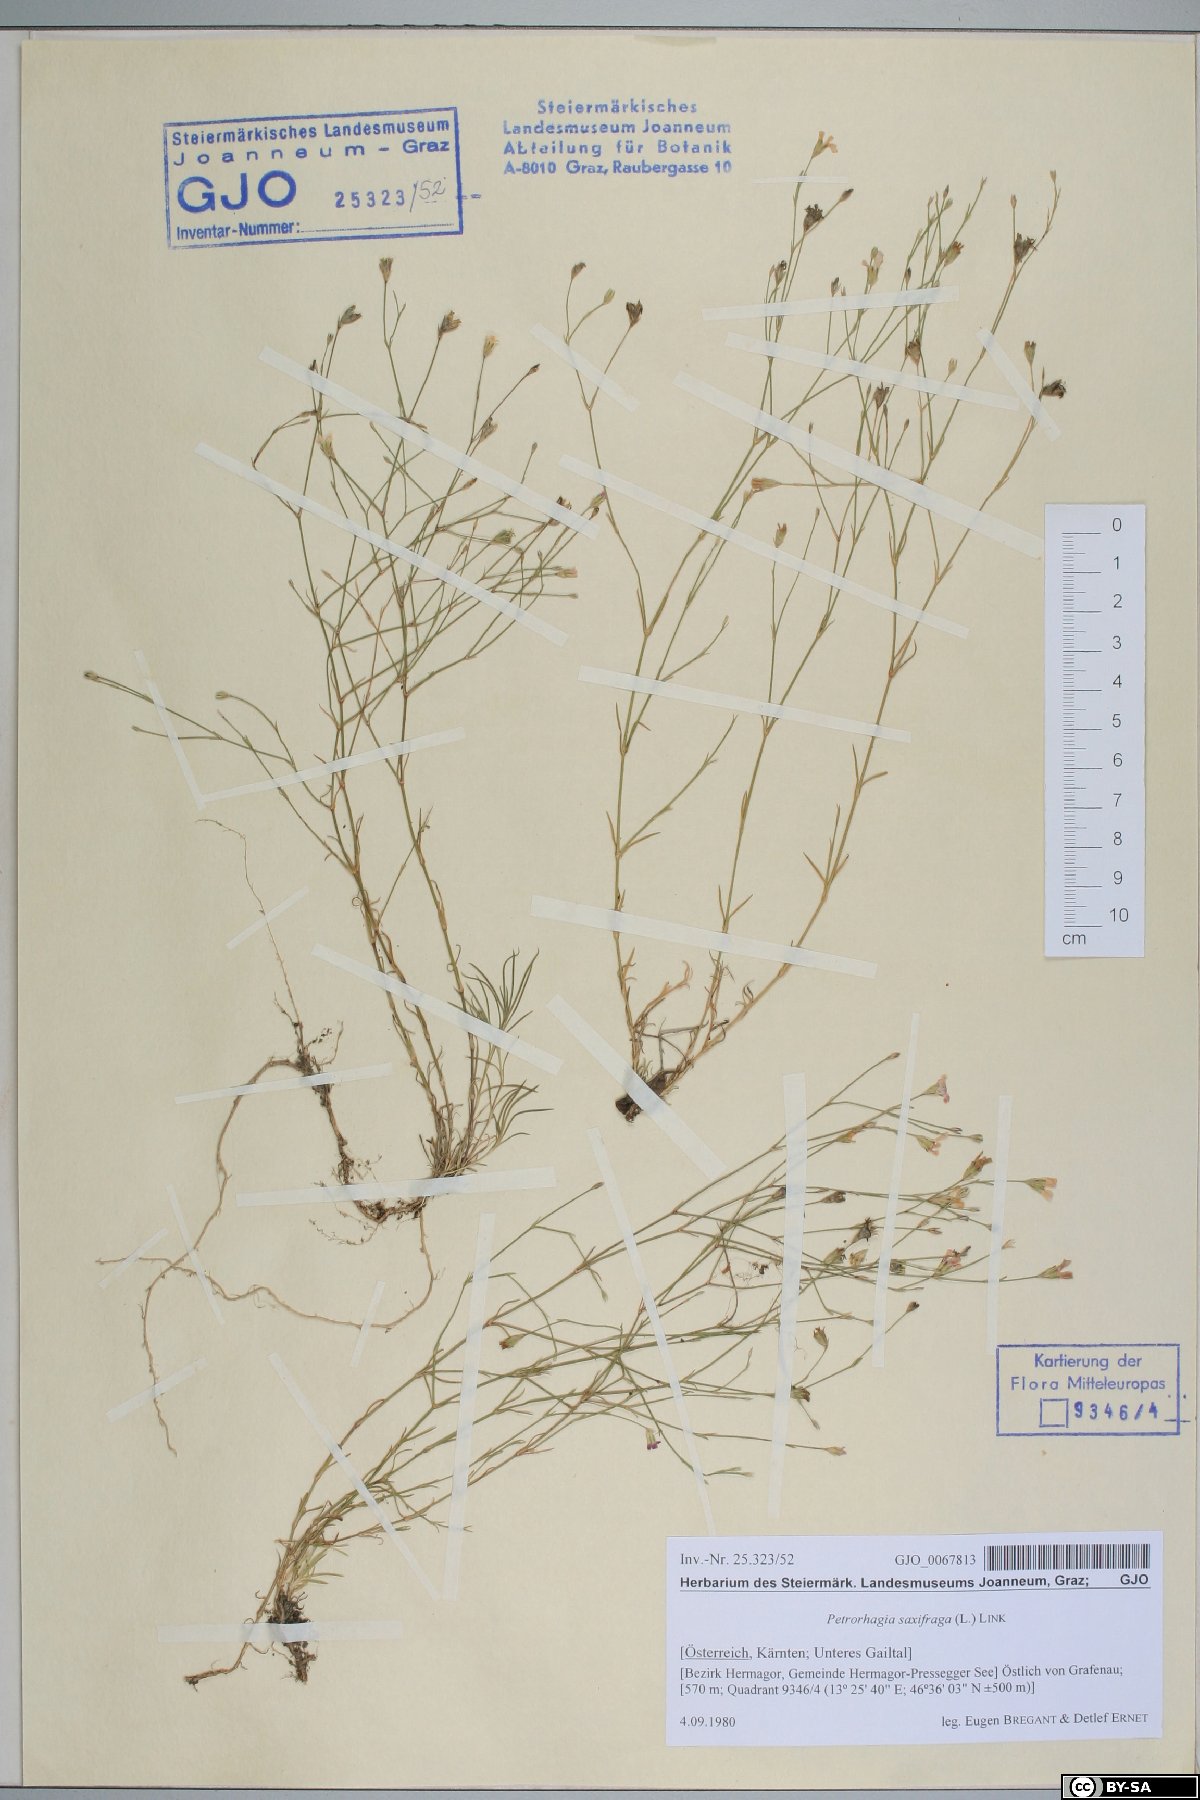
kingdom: Plantae
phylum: Tracheophyta
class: Magnoliopsida
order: Caryophyllales
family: Caryophyllaceae
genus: Petrorhagia
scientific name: Petrorhagia saxifraga
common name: Tunicflower
